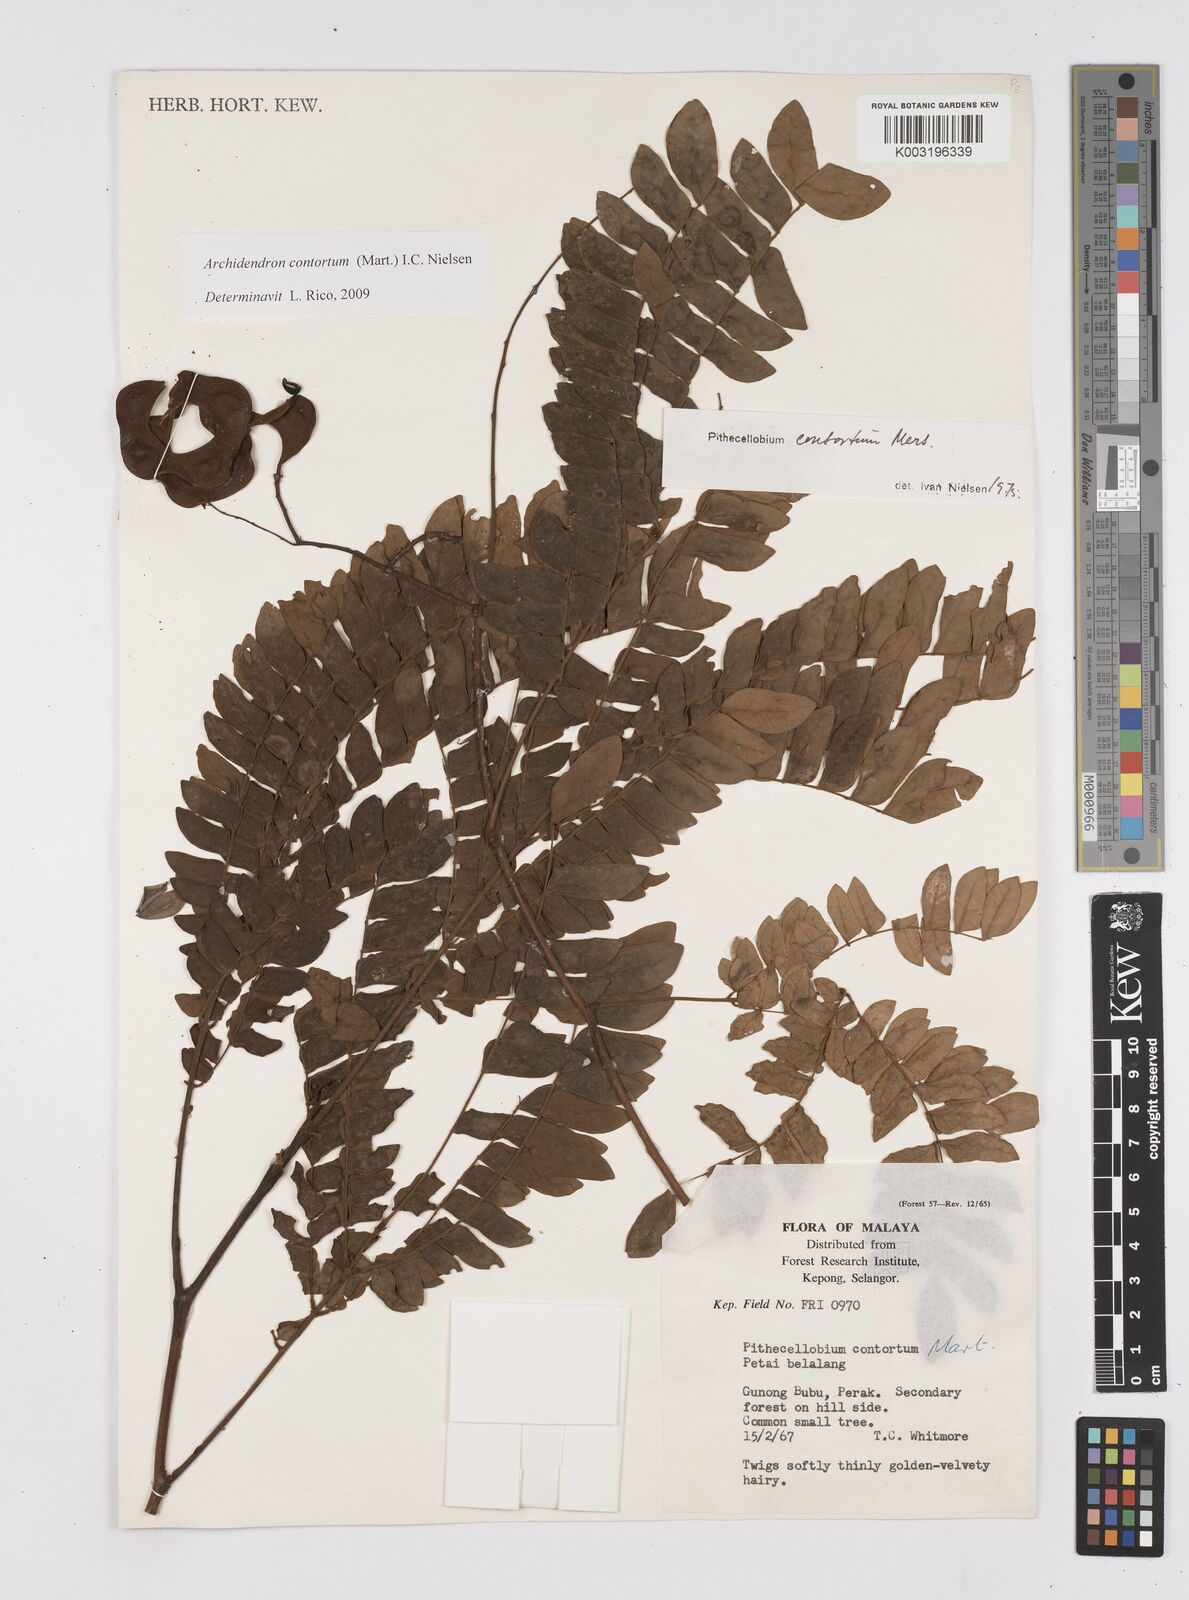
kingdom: Plantae
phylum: Tracheophyta
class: Magnoliopsida
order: Fabales
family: Fabaceae
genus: Archidendron
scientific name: Archidendron contortum
